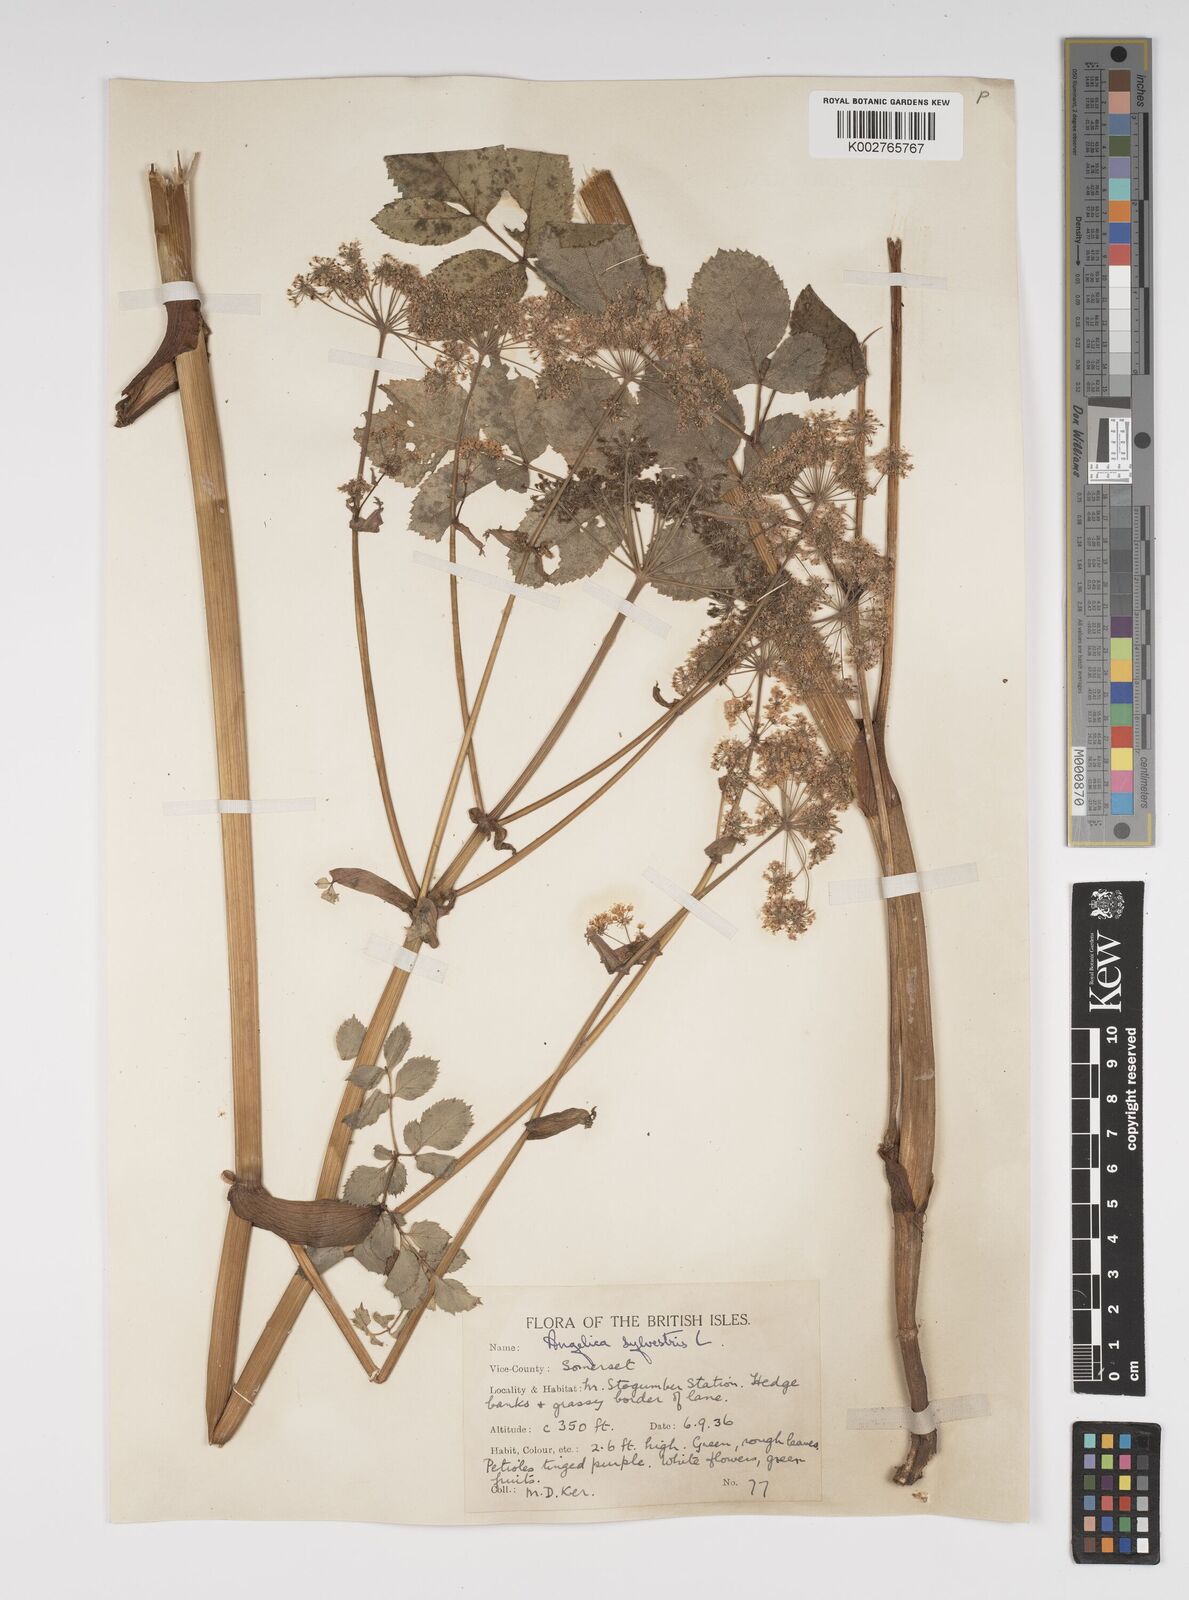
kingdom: Plantae
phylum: Tracheophyta
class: Magnoliopsida
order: Apiales
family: Apiaceae
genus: Angelica
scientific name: Angelica sylvestris
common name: Wild angelica
